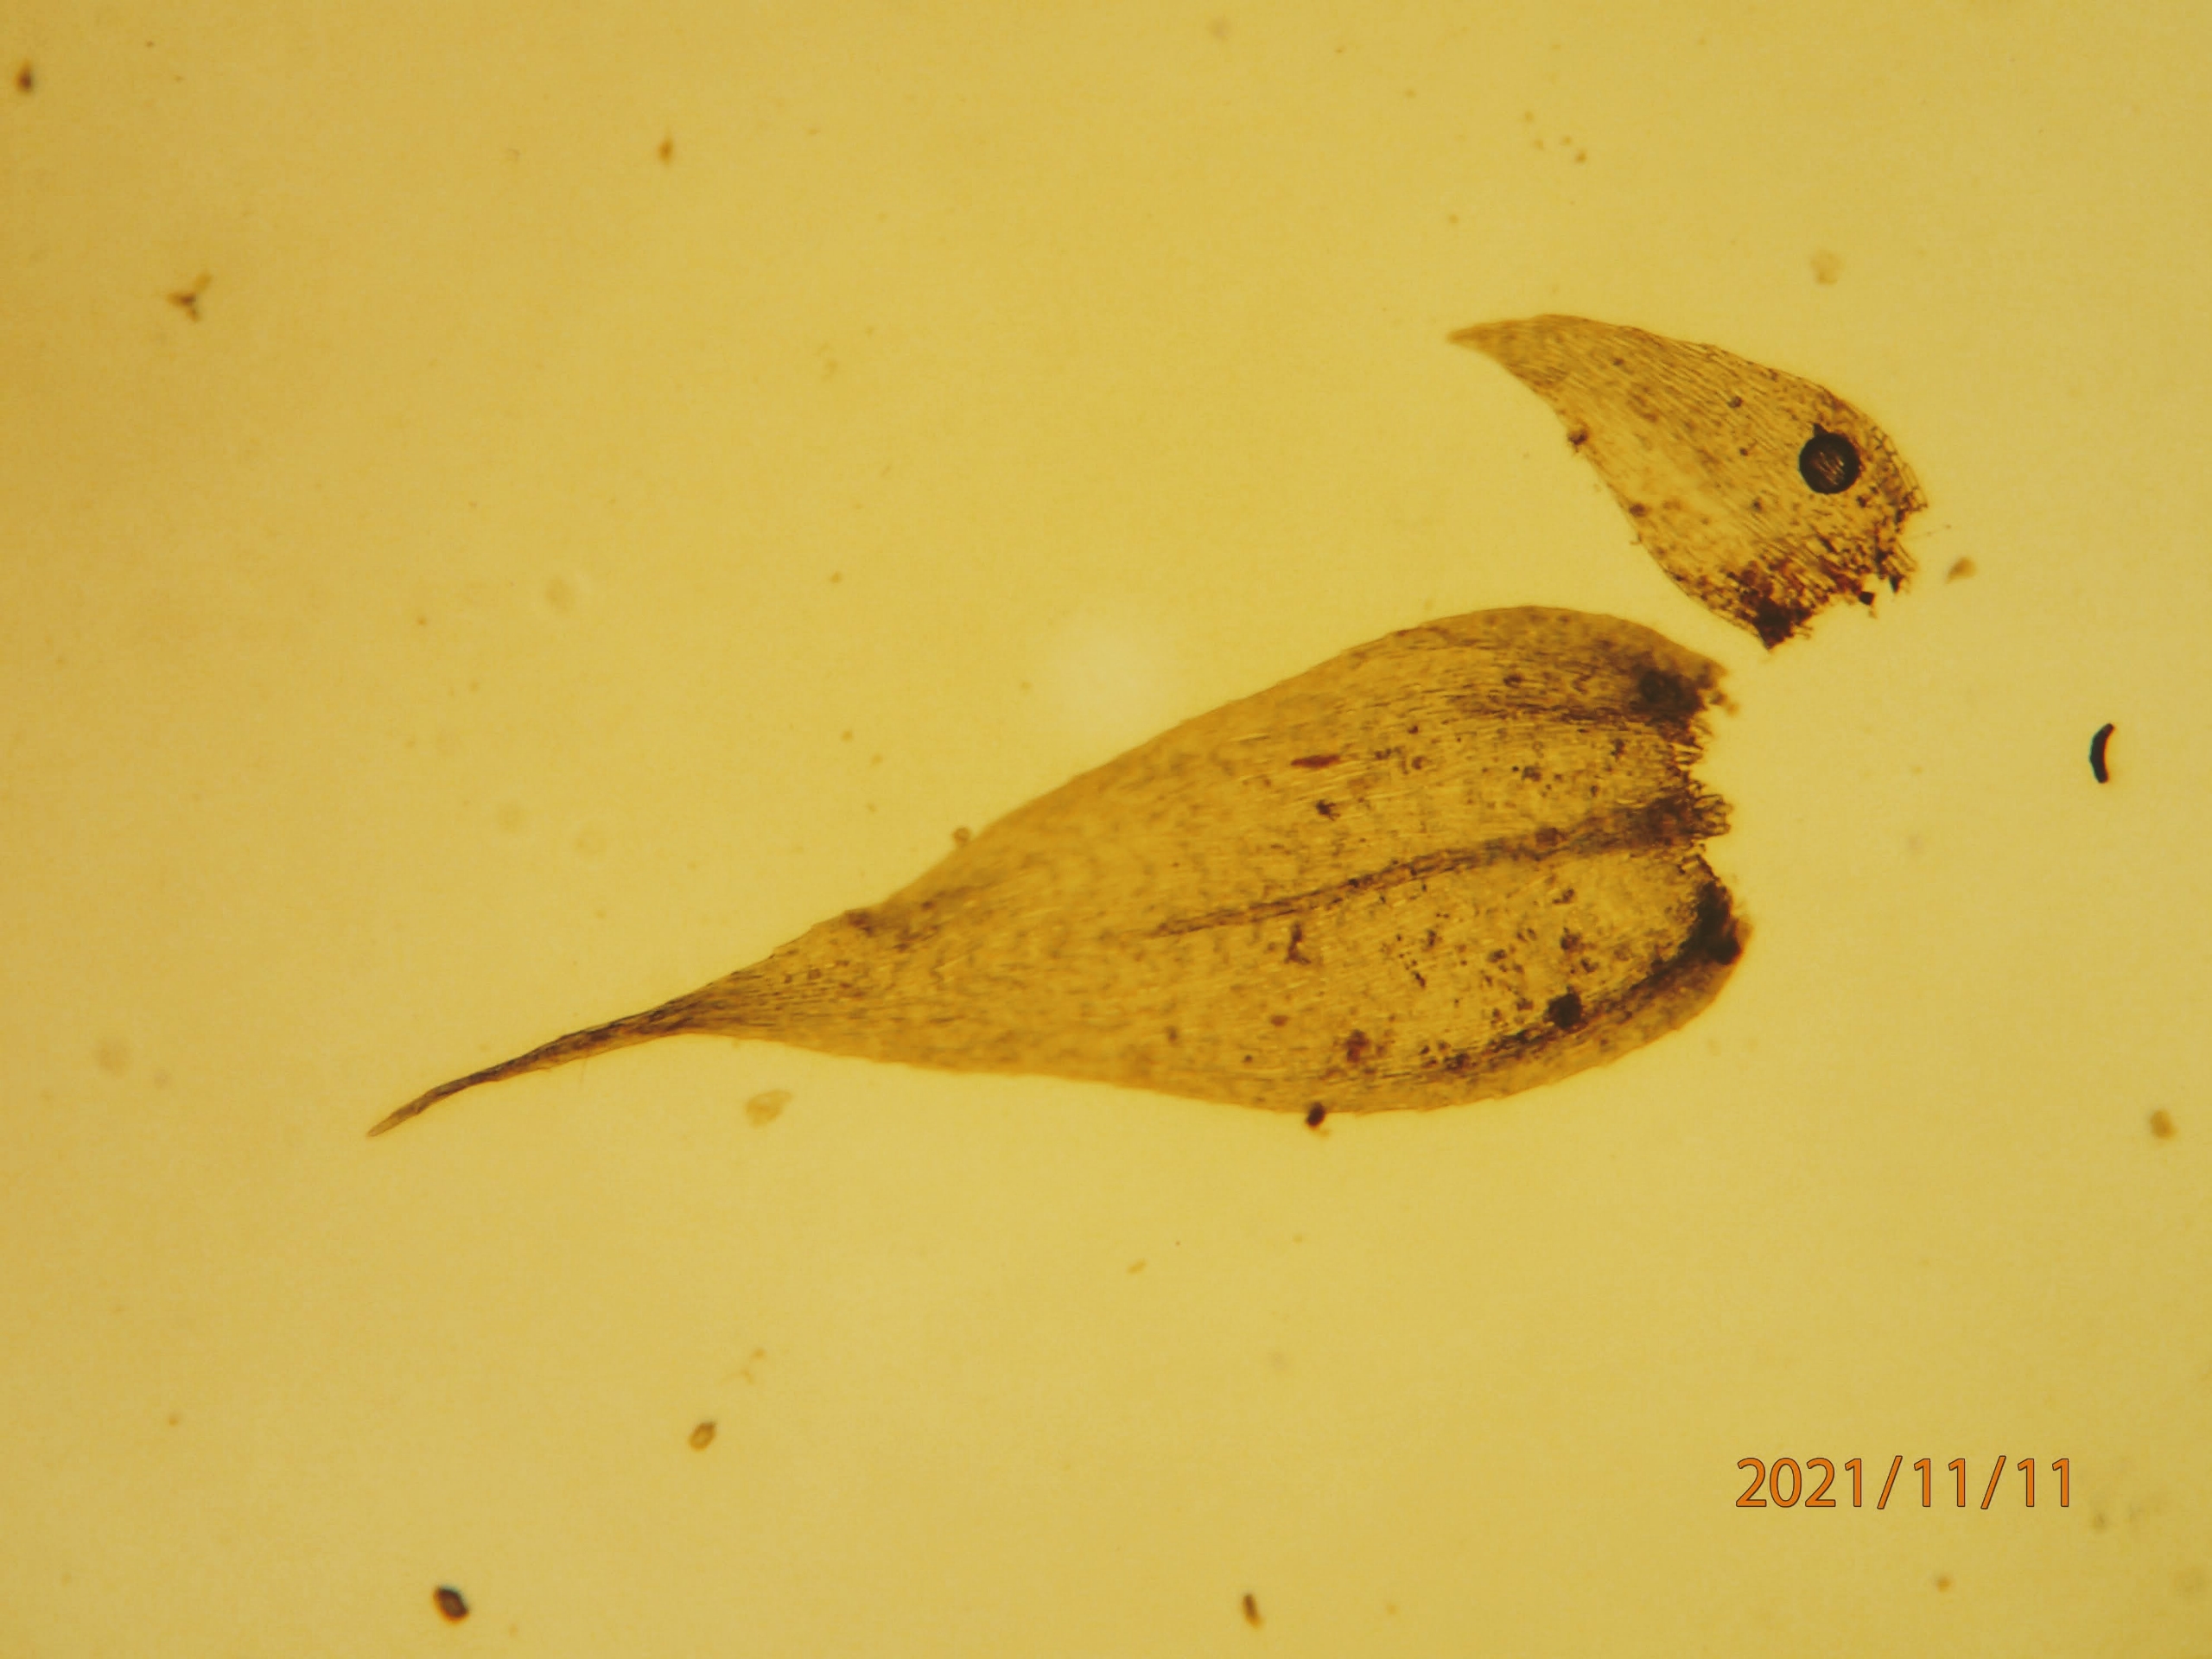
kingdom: Plantae
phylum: Bryophyta
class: Bryopsida
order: Hypnales
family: Brachytheciaceae
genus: Brachytheciastrum
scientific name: Brachytheciastrum velutinum
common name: Fløjls-kortkapsel
